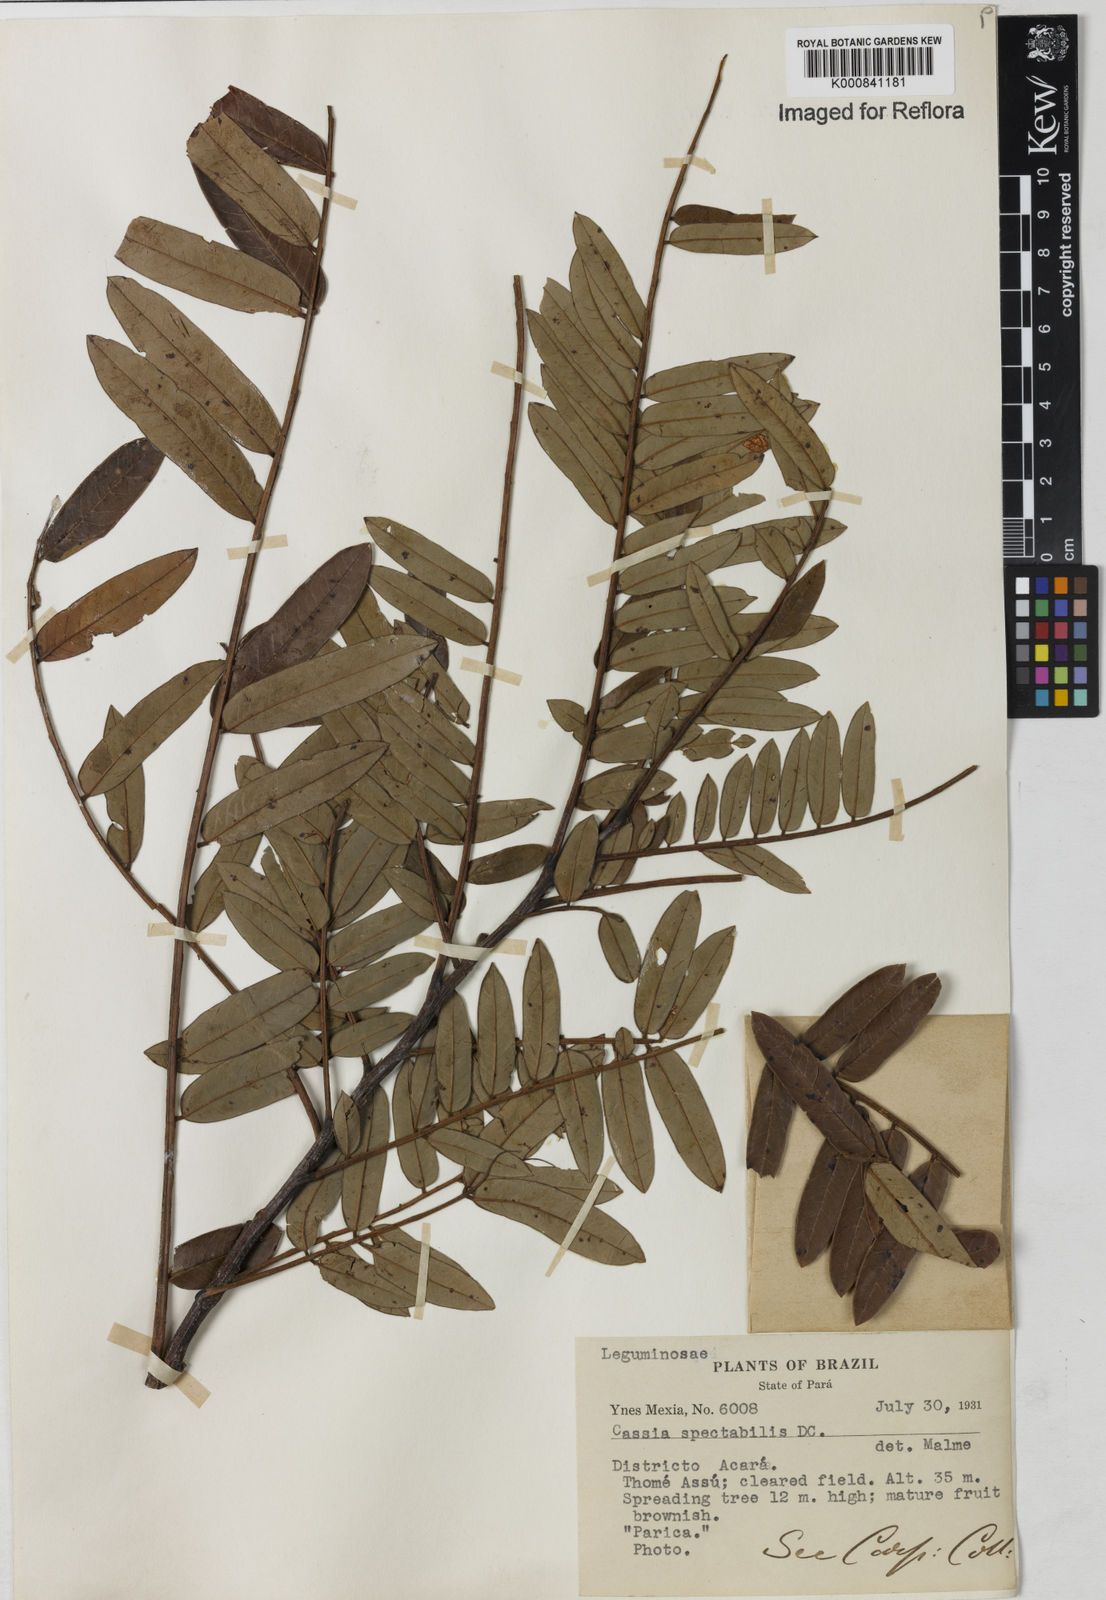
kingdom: Plantae
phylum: Tracheophyta
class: Magnoliopsida
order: Fabales
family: Fabaceae
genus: Senna
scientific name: Senna spectabilis
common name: Casia amarilla
